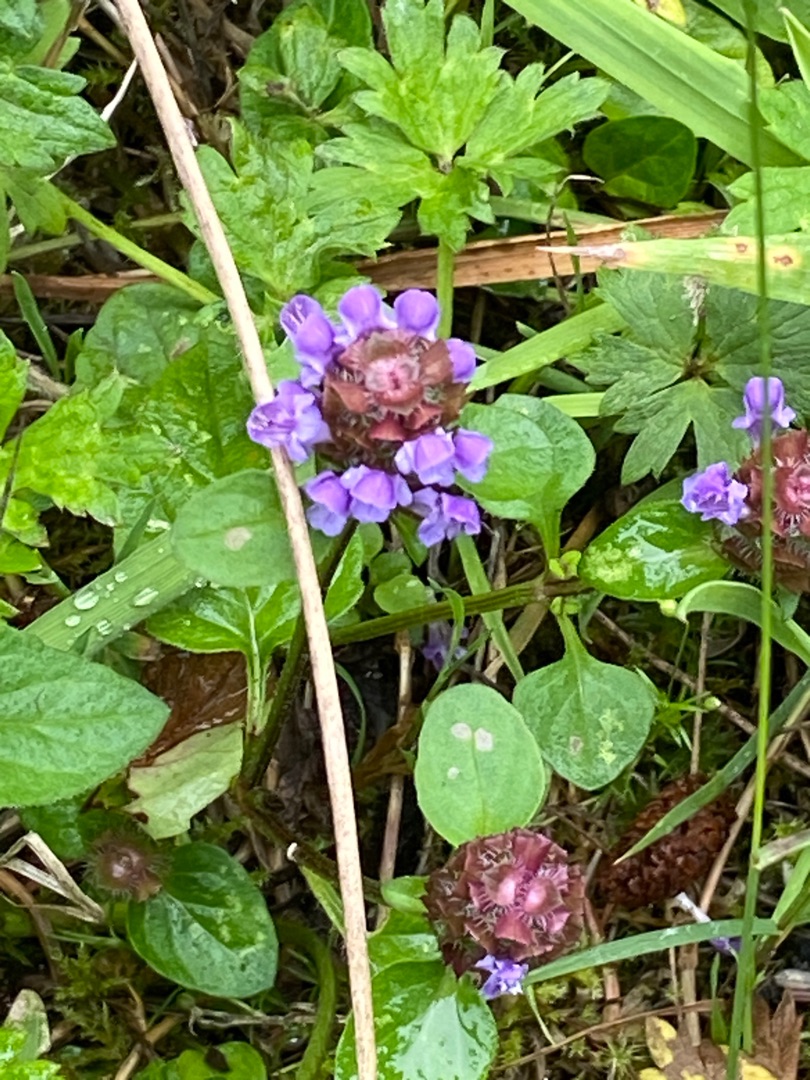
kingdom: Plantae
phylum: Tracheophyta
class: Magnoliopsida
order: Lamiales
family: Lamiaceae
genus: Prunella
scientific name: Prunella vulgaris
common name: Almindelig brunelle
